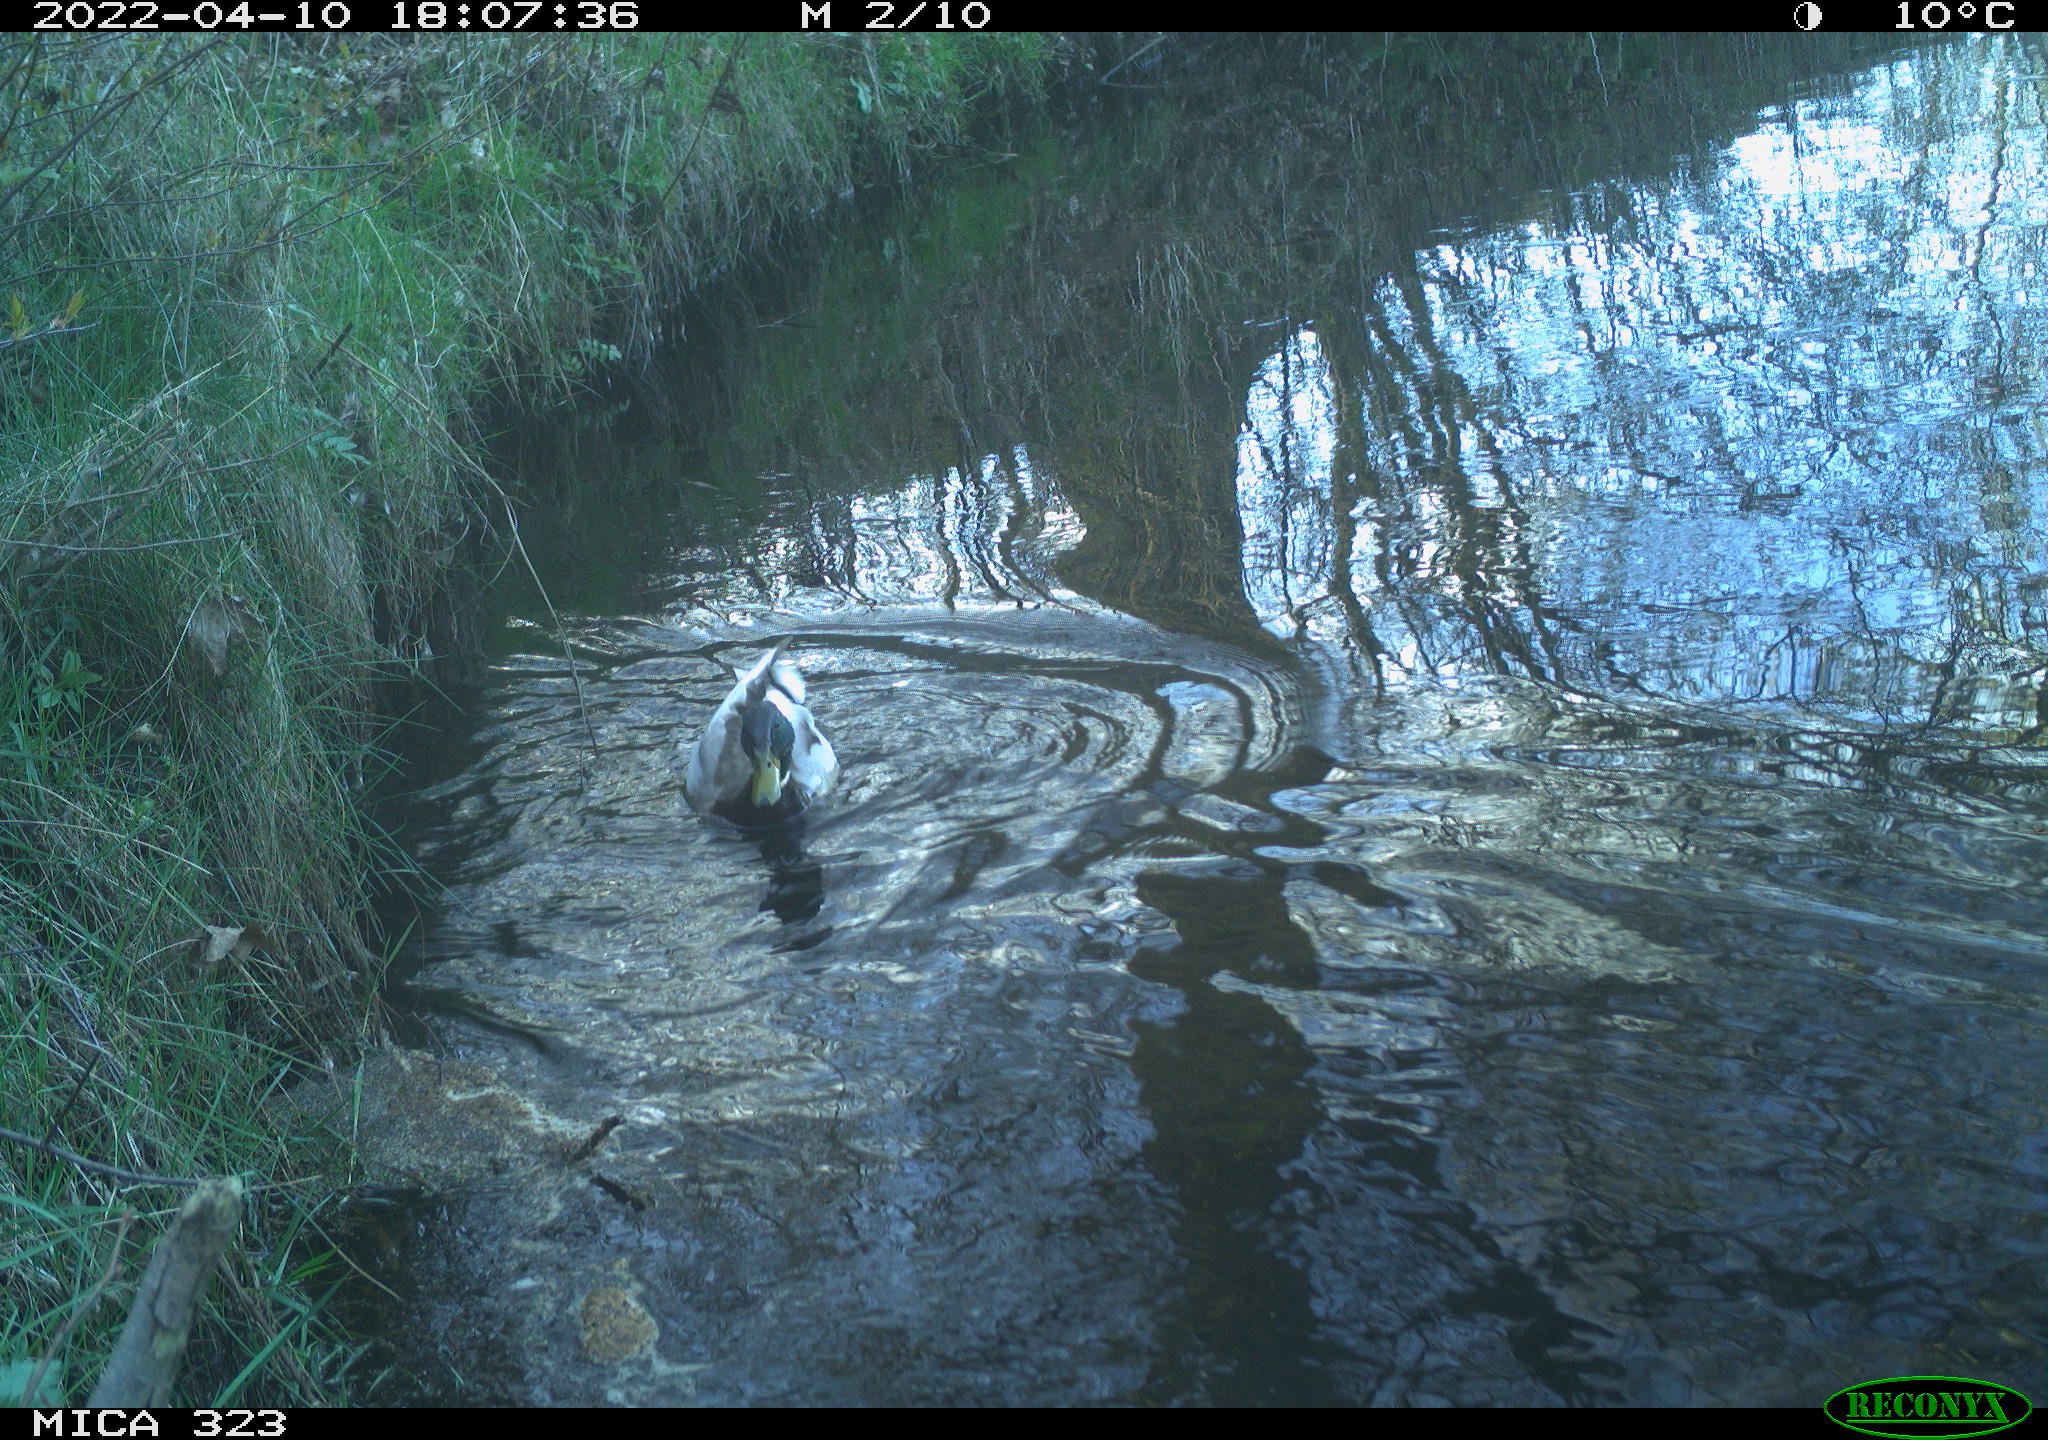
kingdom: Animalia
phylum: Chordata
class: Aves
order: Anseriformes
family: Anatidae
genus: Anas
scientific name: Anas platyrhynchos
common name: Mallard
